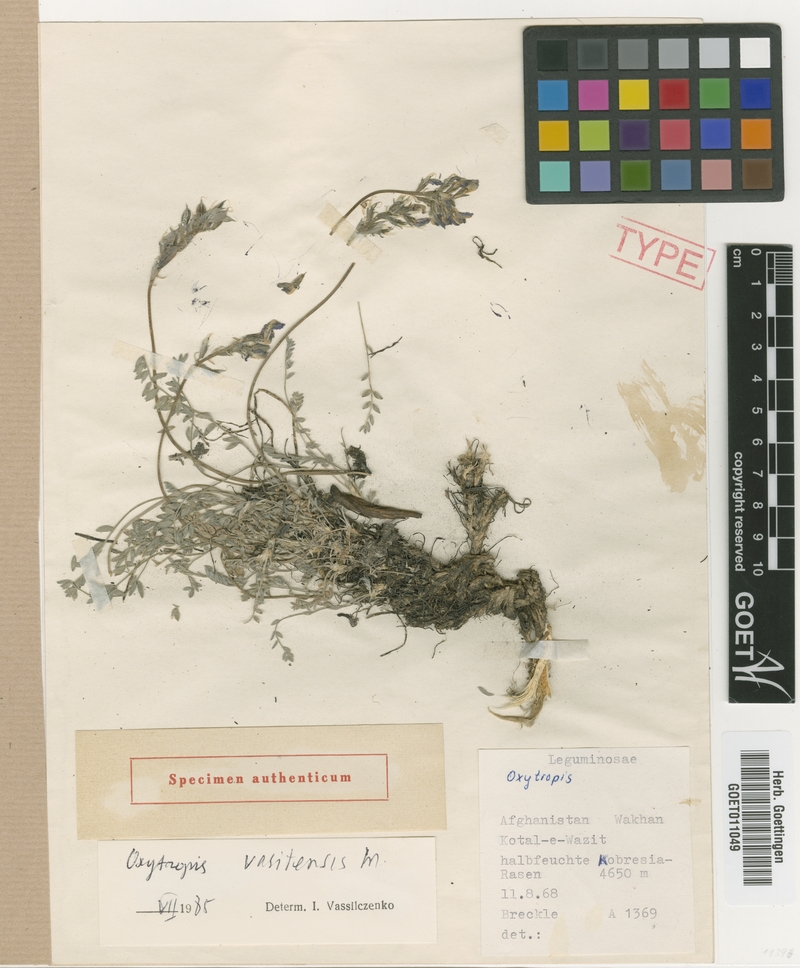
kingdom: Plantae
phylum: Tracheophyta
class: Magnoliopsida
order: Fabales
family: Fabaceae
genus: Oxytropis
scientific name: Oxytropis vositensis
